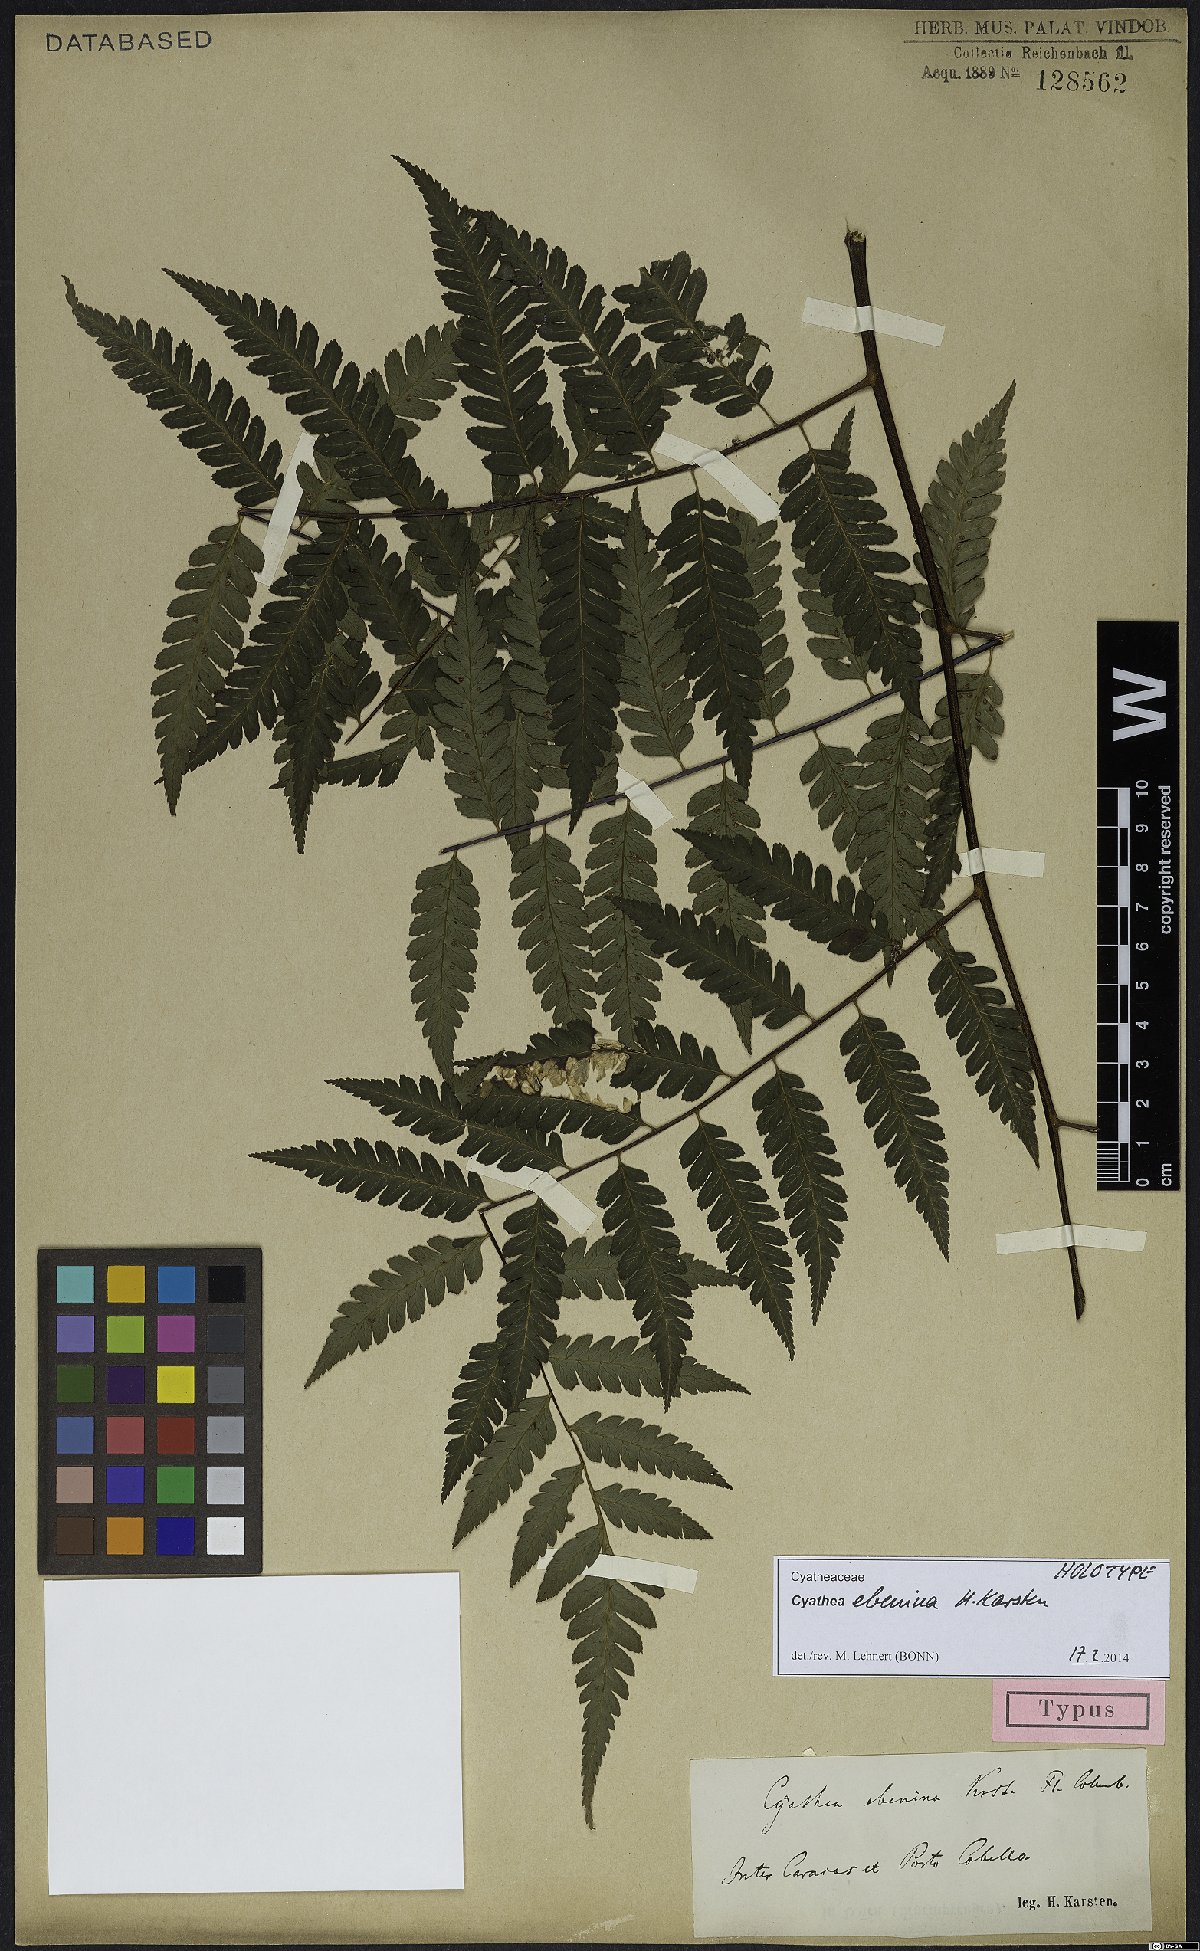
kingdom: Plantae
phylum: Tracheophyta
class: Polypodiopsida
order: Cyatheales
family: Cyatheaceae
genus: Cyathea
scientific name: Cyathea ebenina
